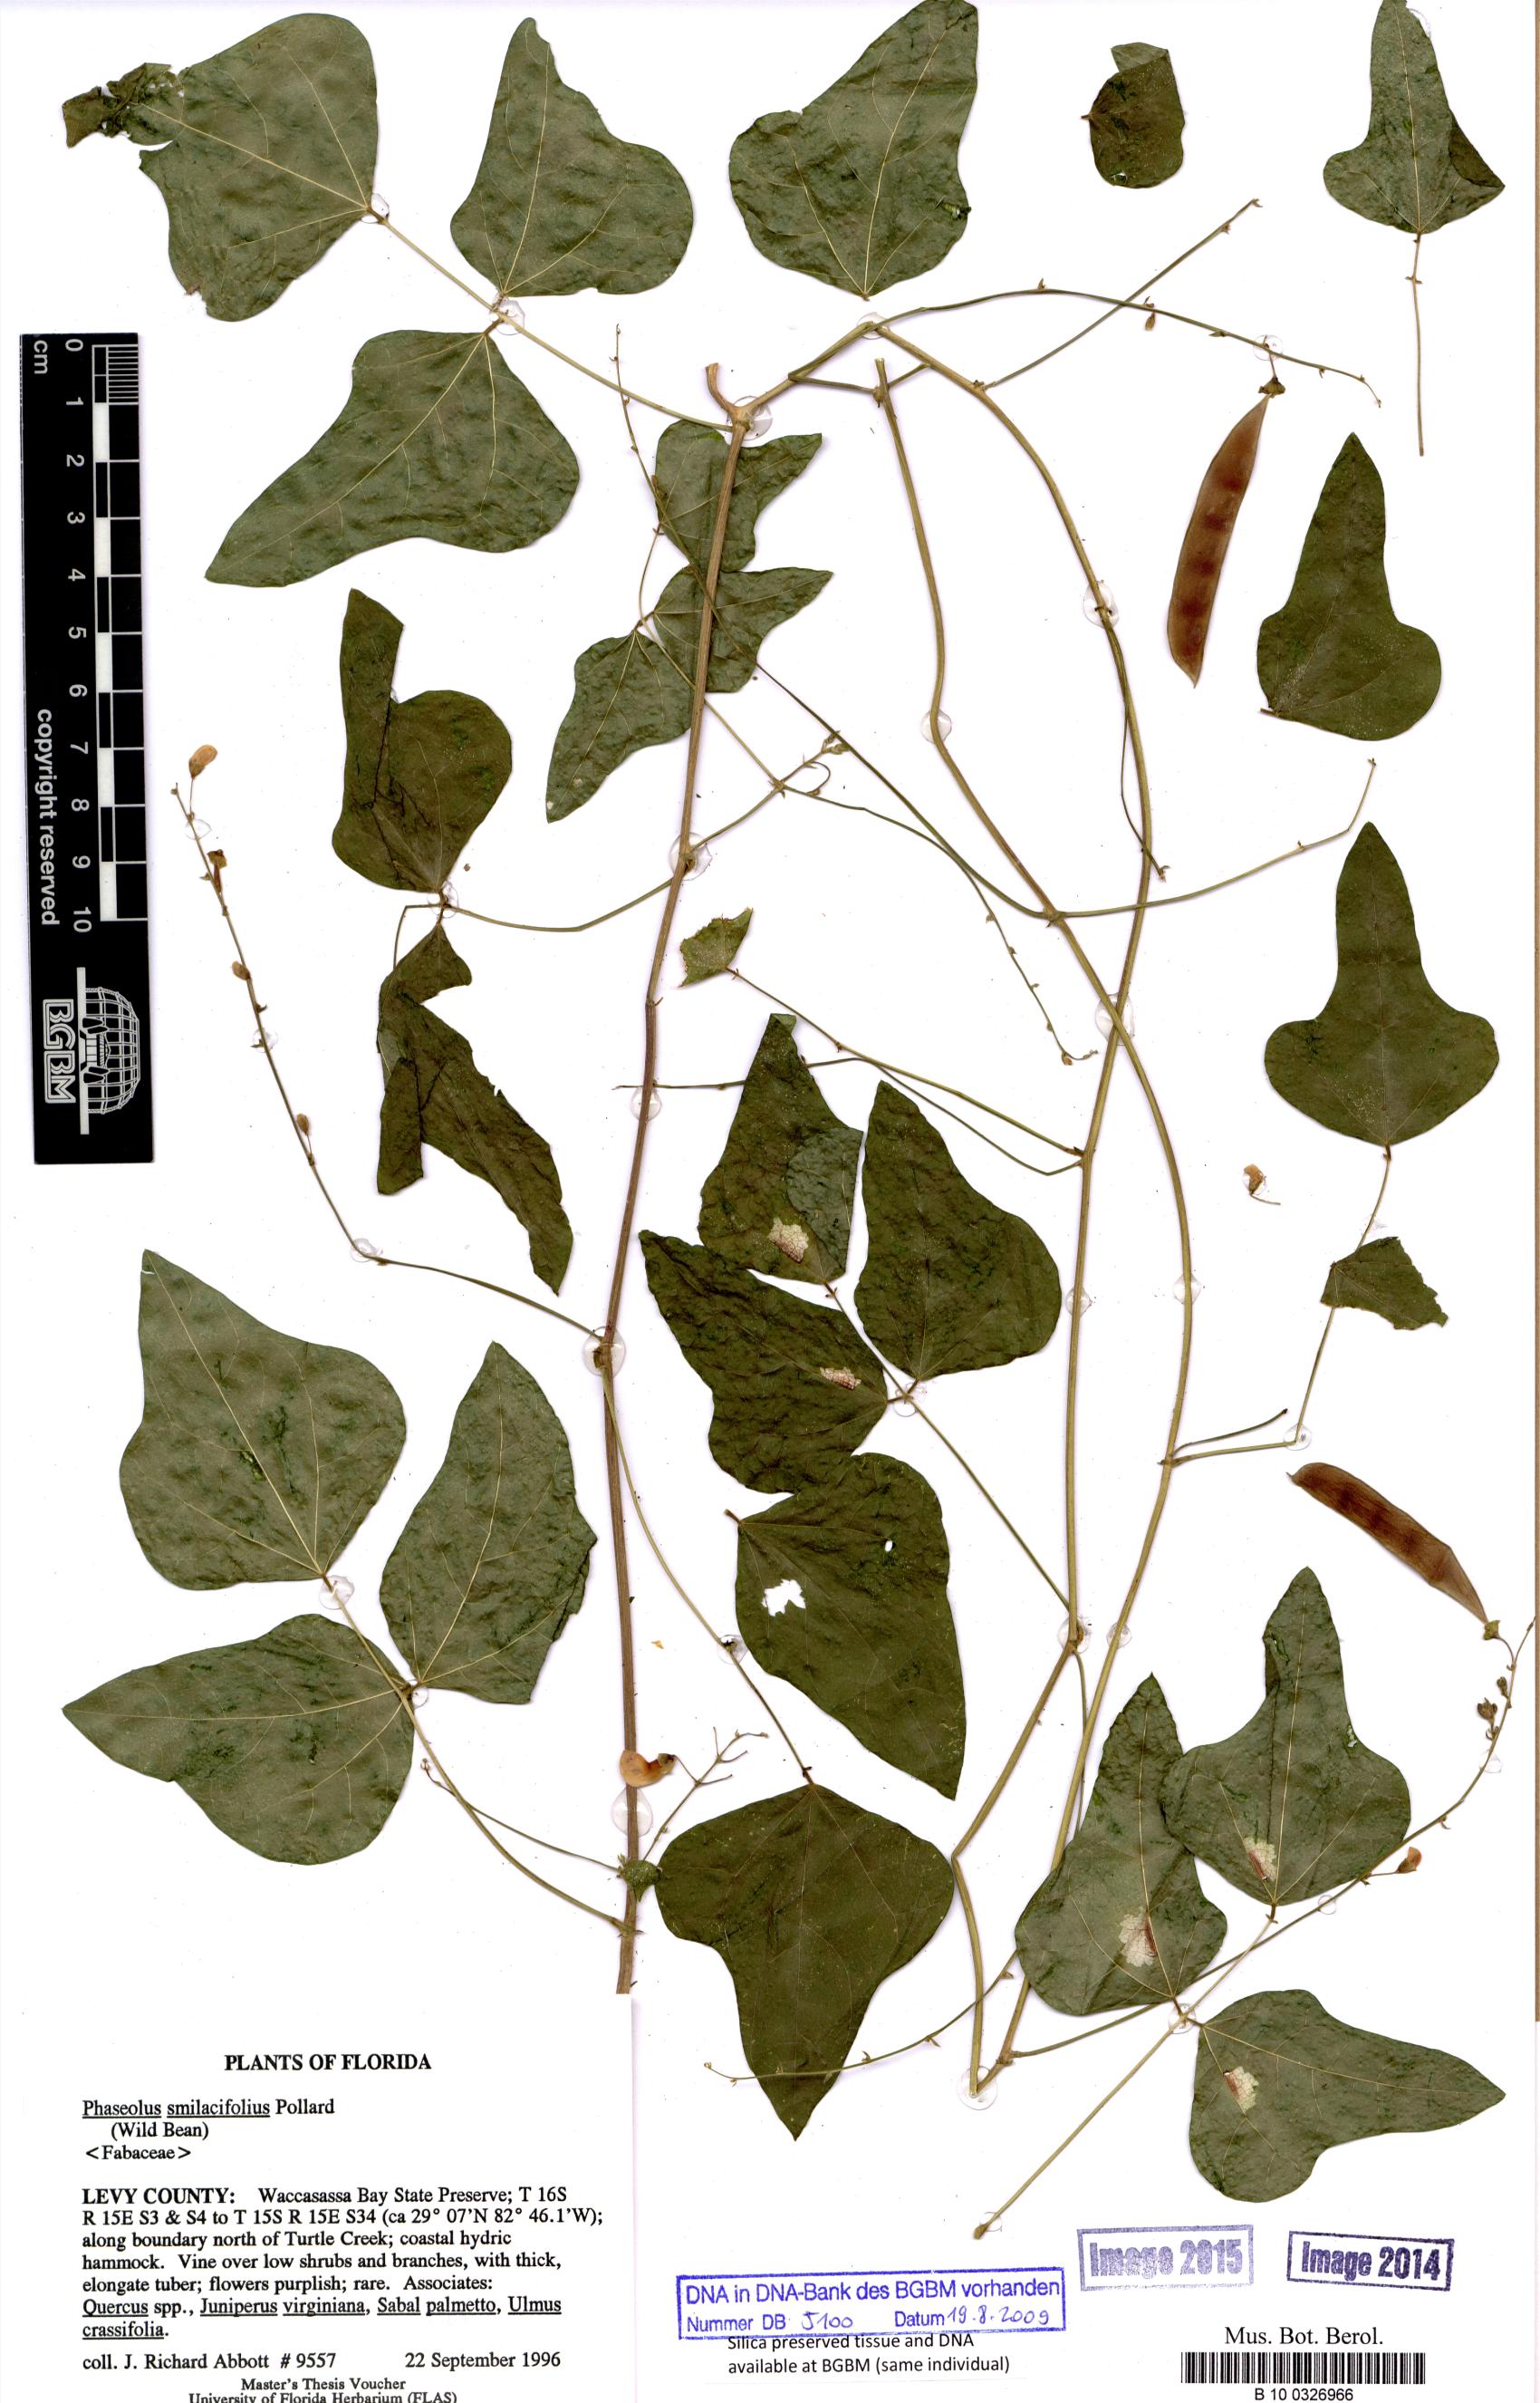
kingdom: Plantae
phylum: Tracheophyta
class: Magnoliopsida
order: Fabales
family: Fabaceae
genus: Phaseolus
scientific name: Phaseolus polystachios
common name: Thicket bean
